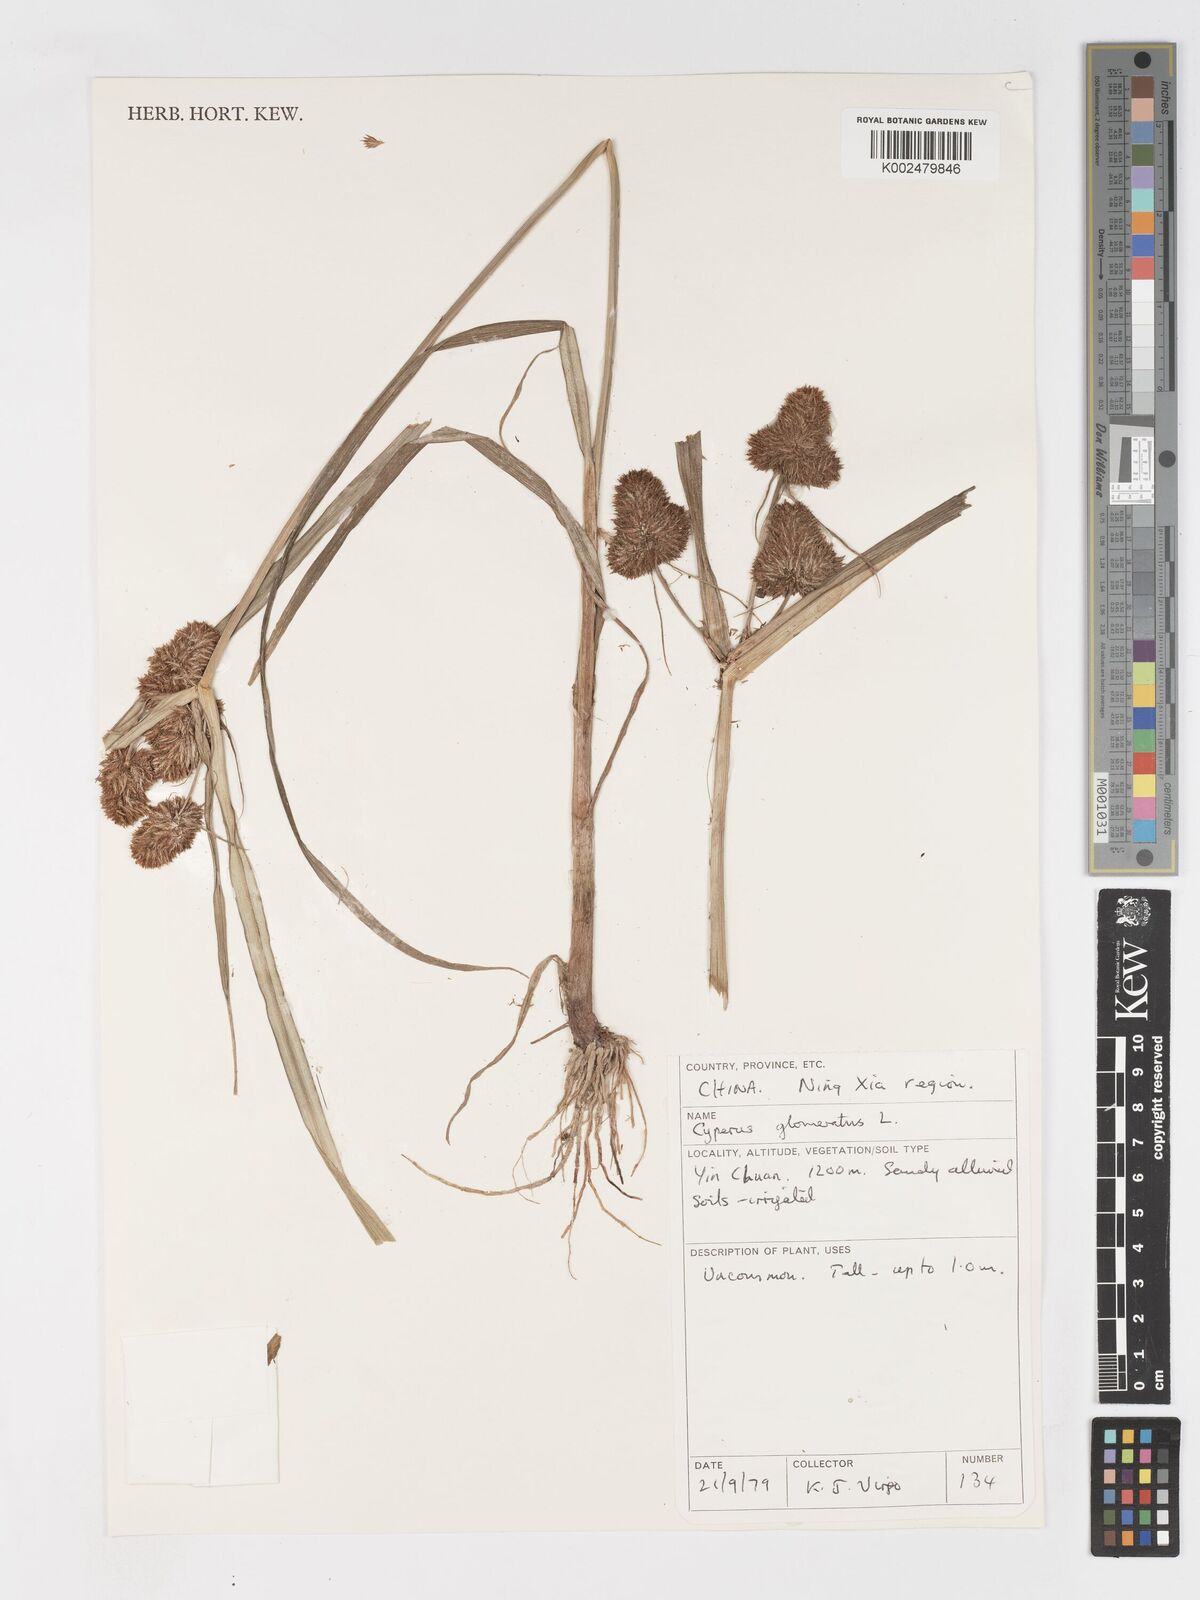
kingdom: Plantae
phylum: Tracheophyta
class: Liliopsida
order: Poales
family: Cyperaceae
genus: Cyperus
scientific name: Cyperus glomeratus
